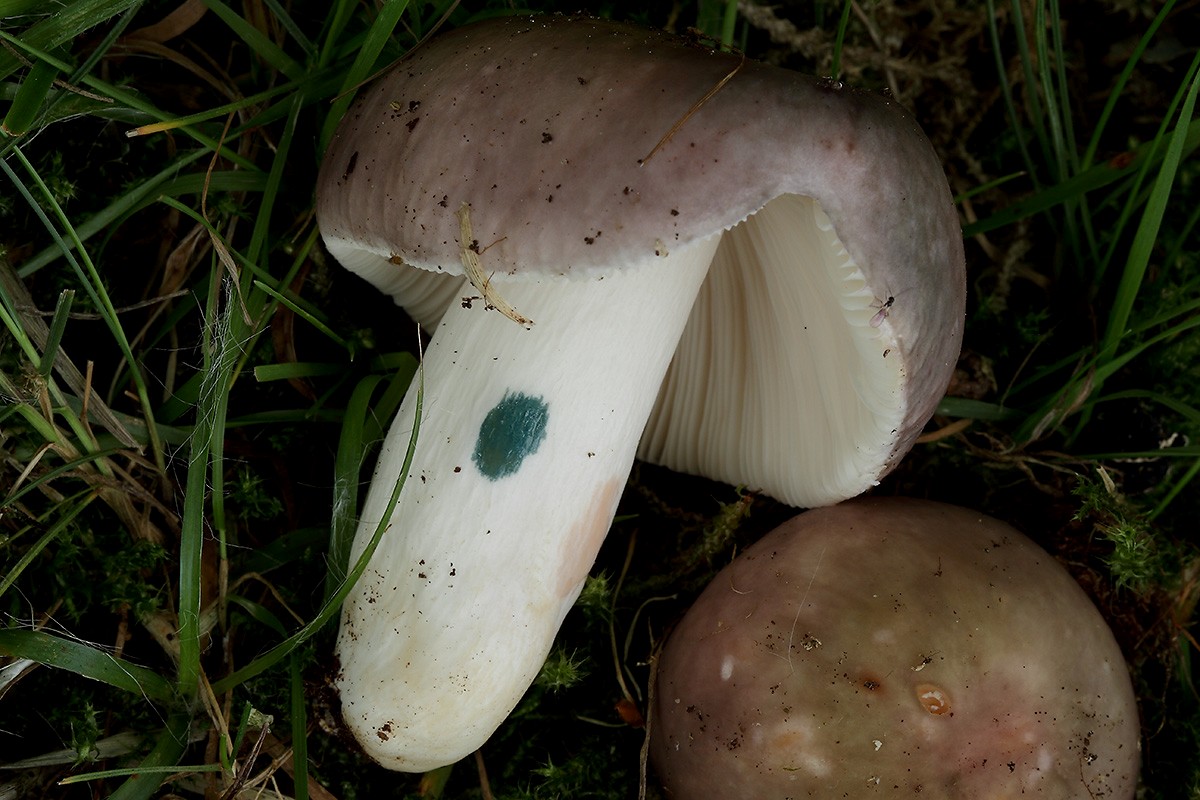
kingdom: Fungi
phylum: Basidiomycota
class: Agaricomycetes
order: Russulales
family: Russulaceae
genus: Russula
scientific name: Russula cyanoxantha
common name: broget skørhat
